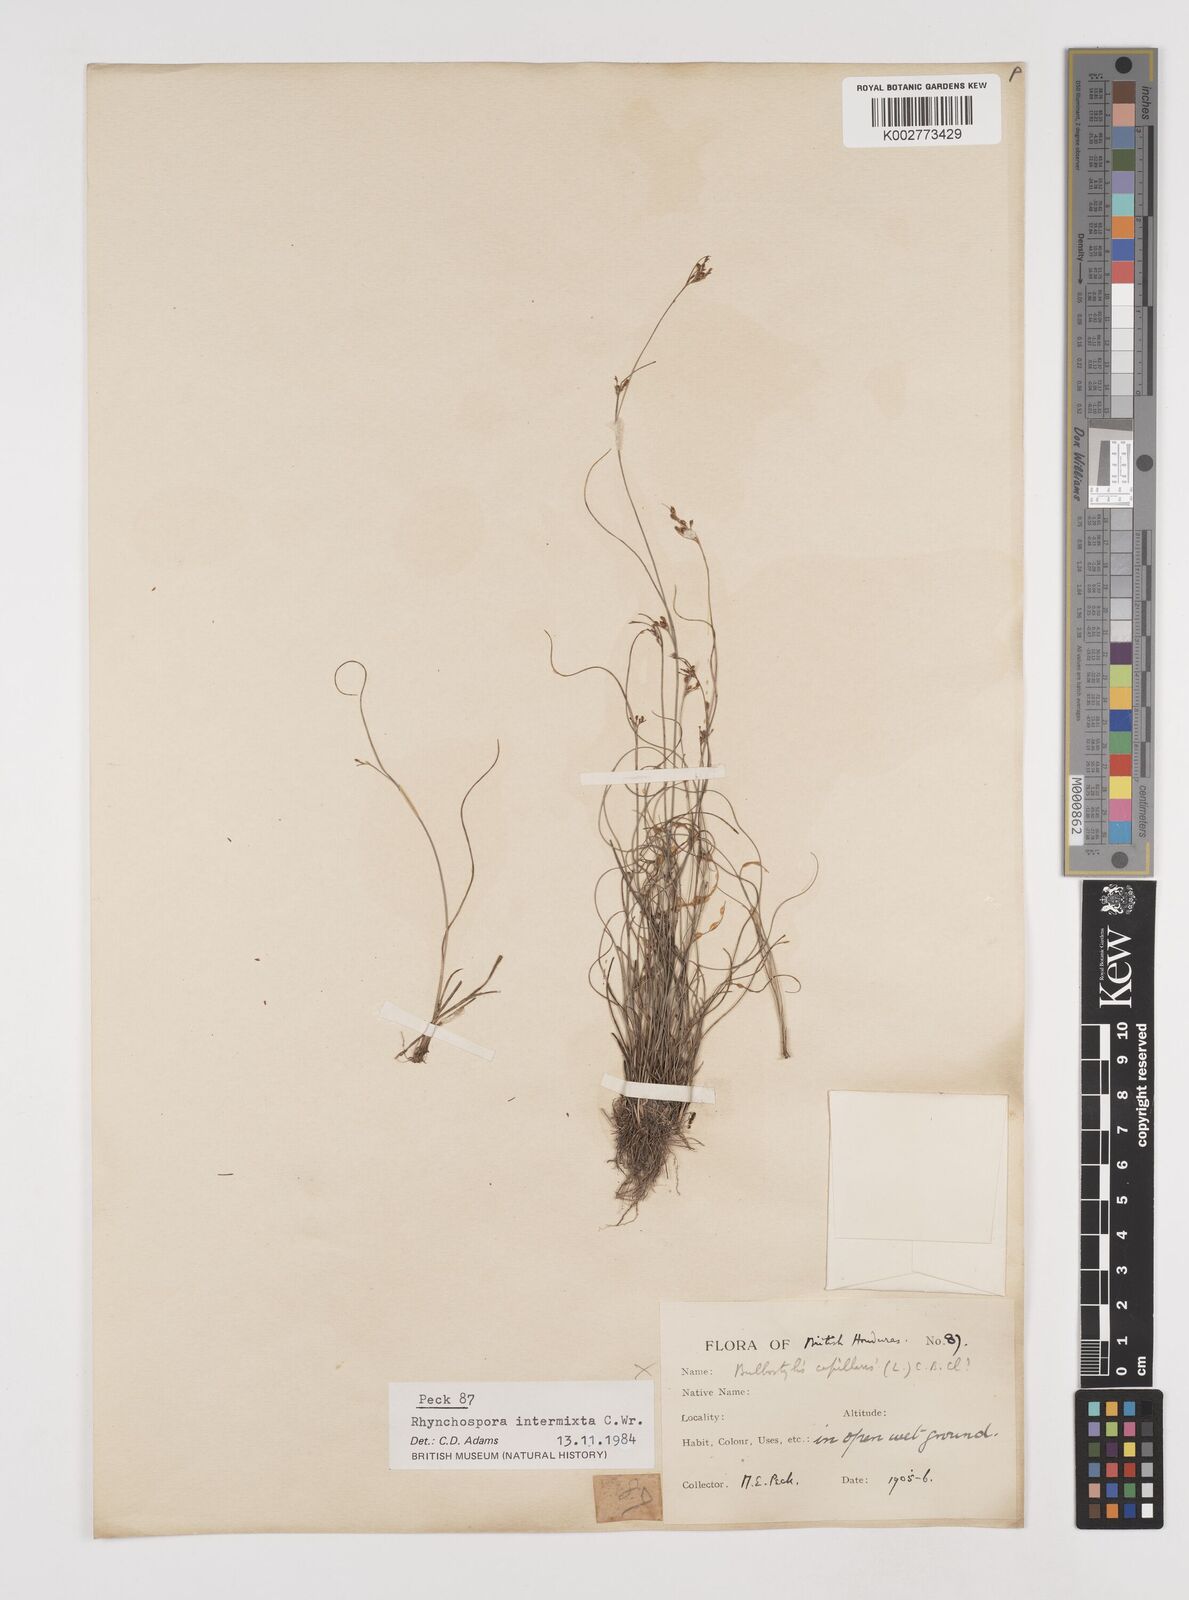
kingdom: Plantae
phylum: Tracheophyta
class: Liliopsida
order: Poales
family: Cyperaceae
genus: Rhynchospora
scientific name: Rhynchospora intermixta
